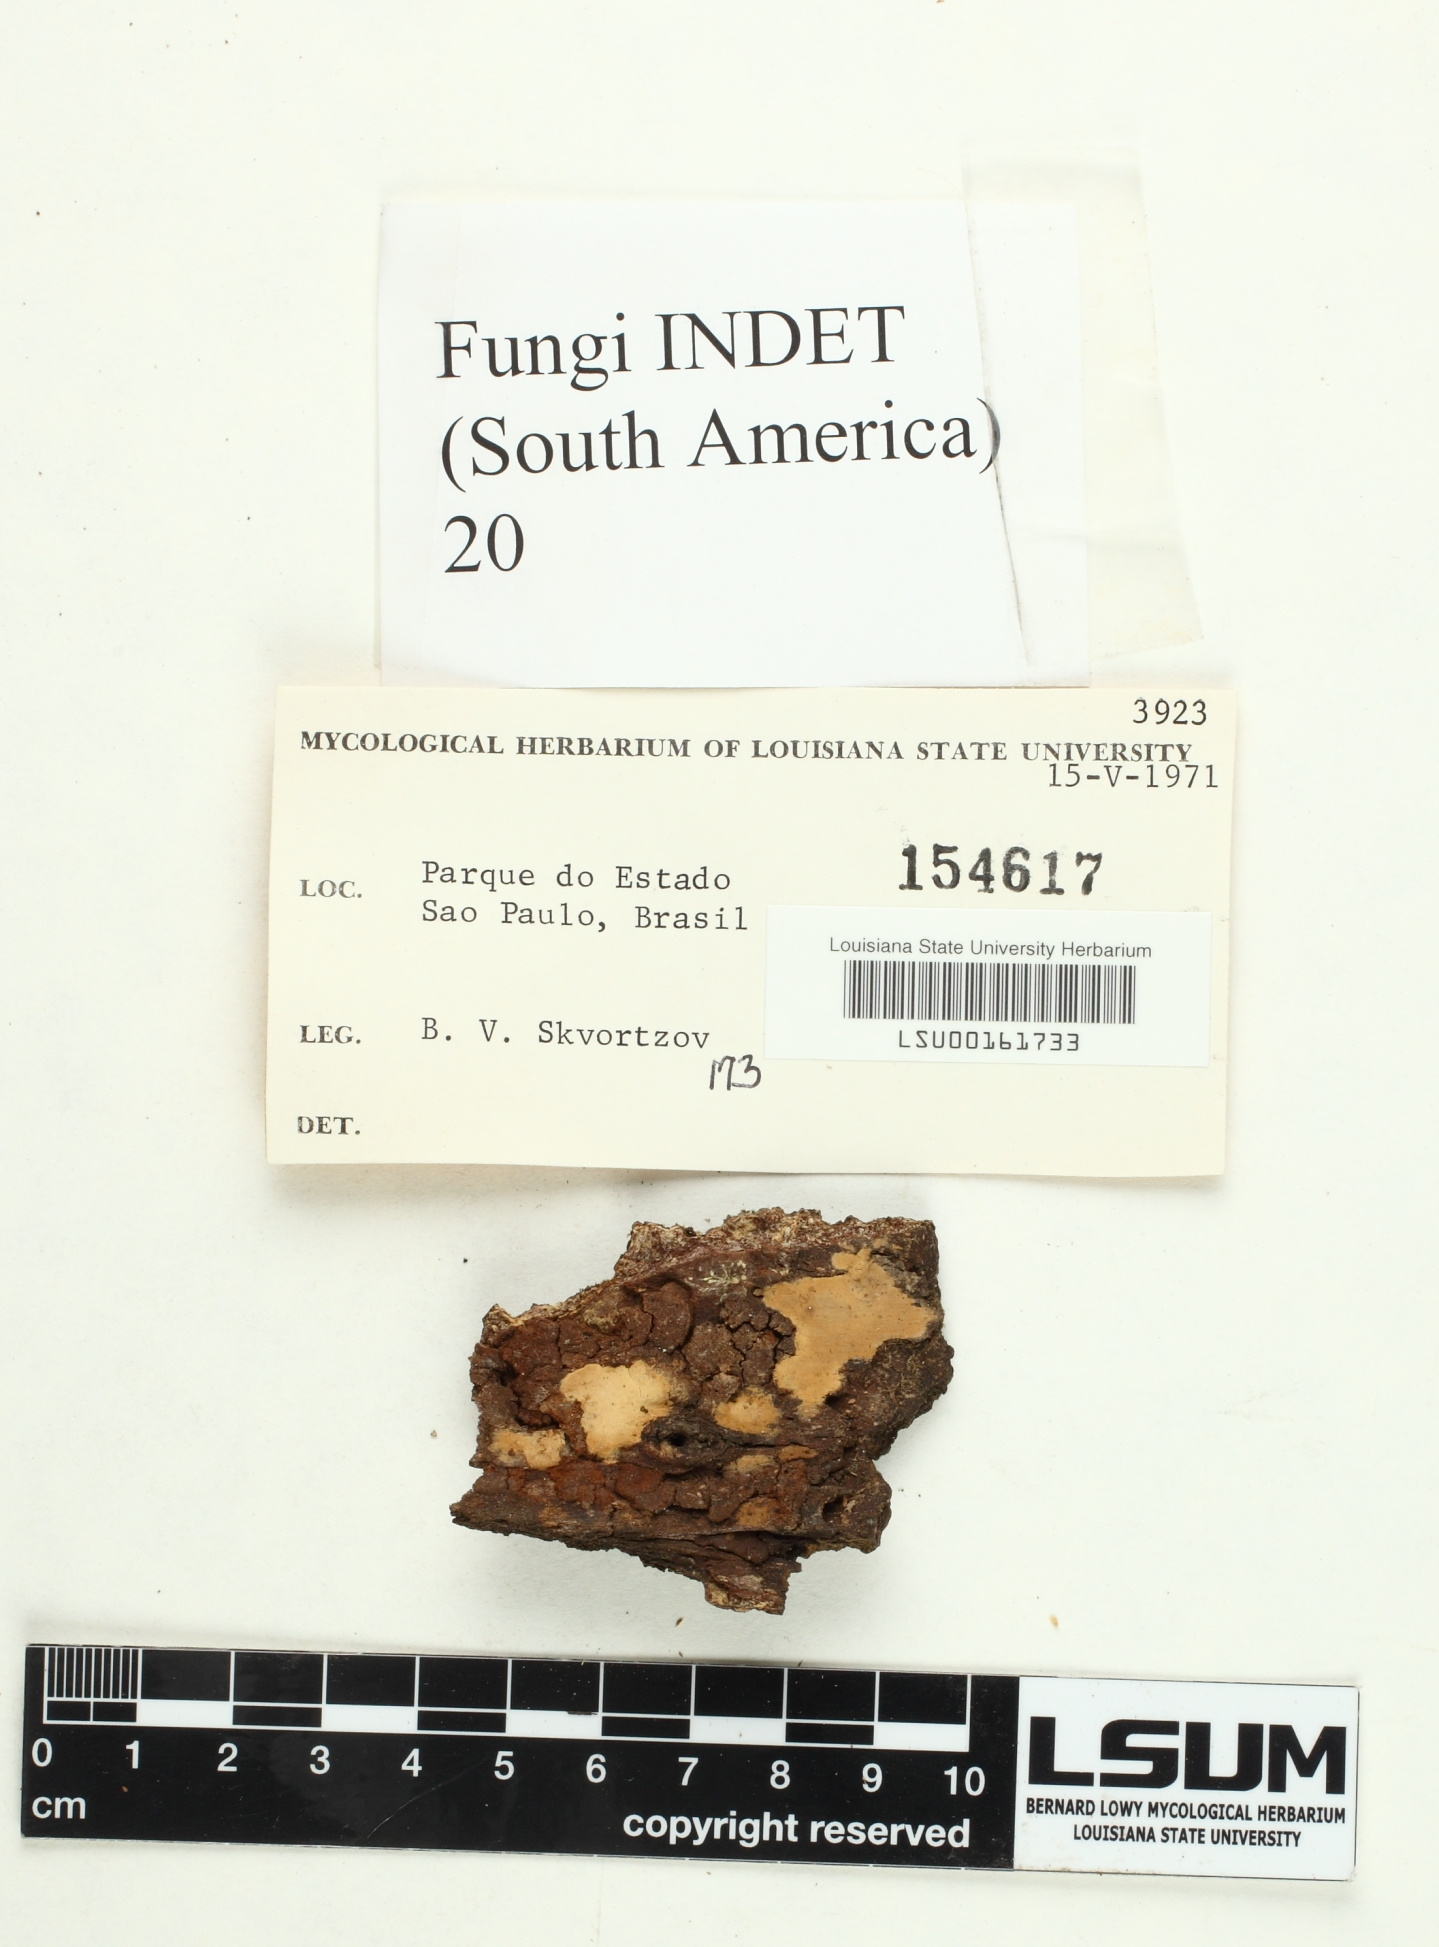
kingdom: Fungi
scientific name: Fungi
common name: Fungi
